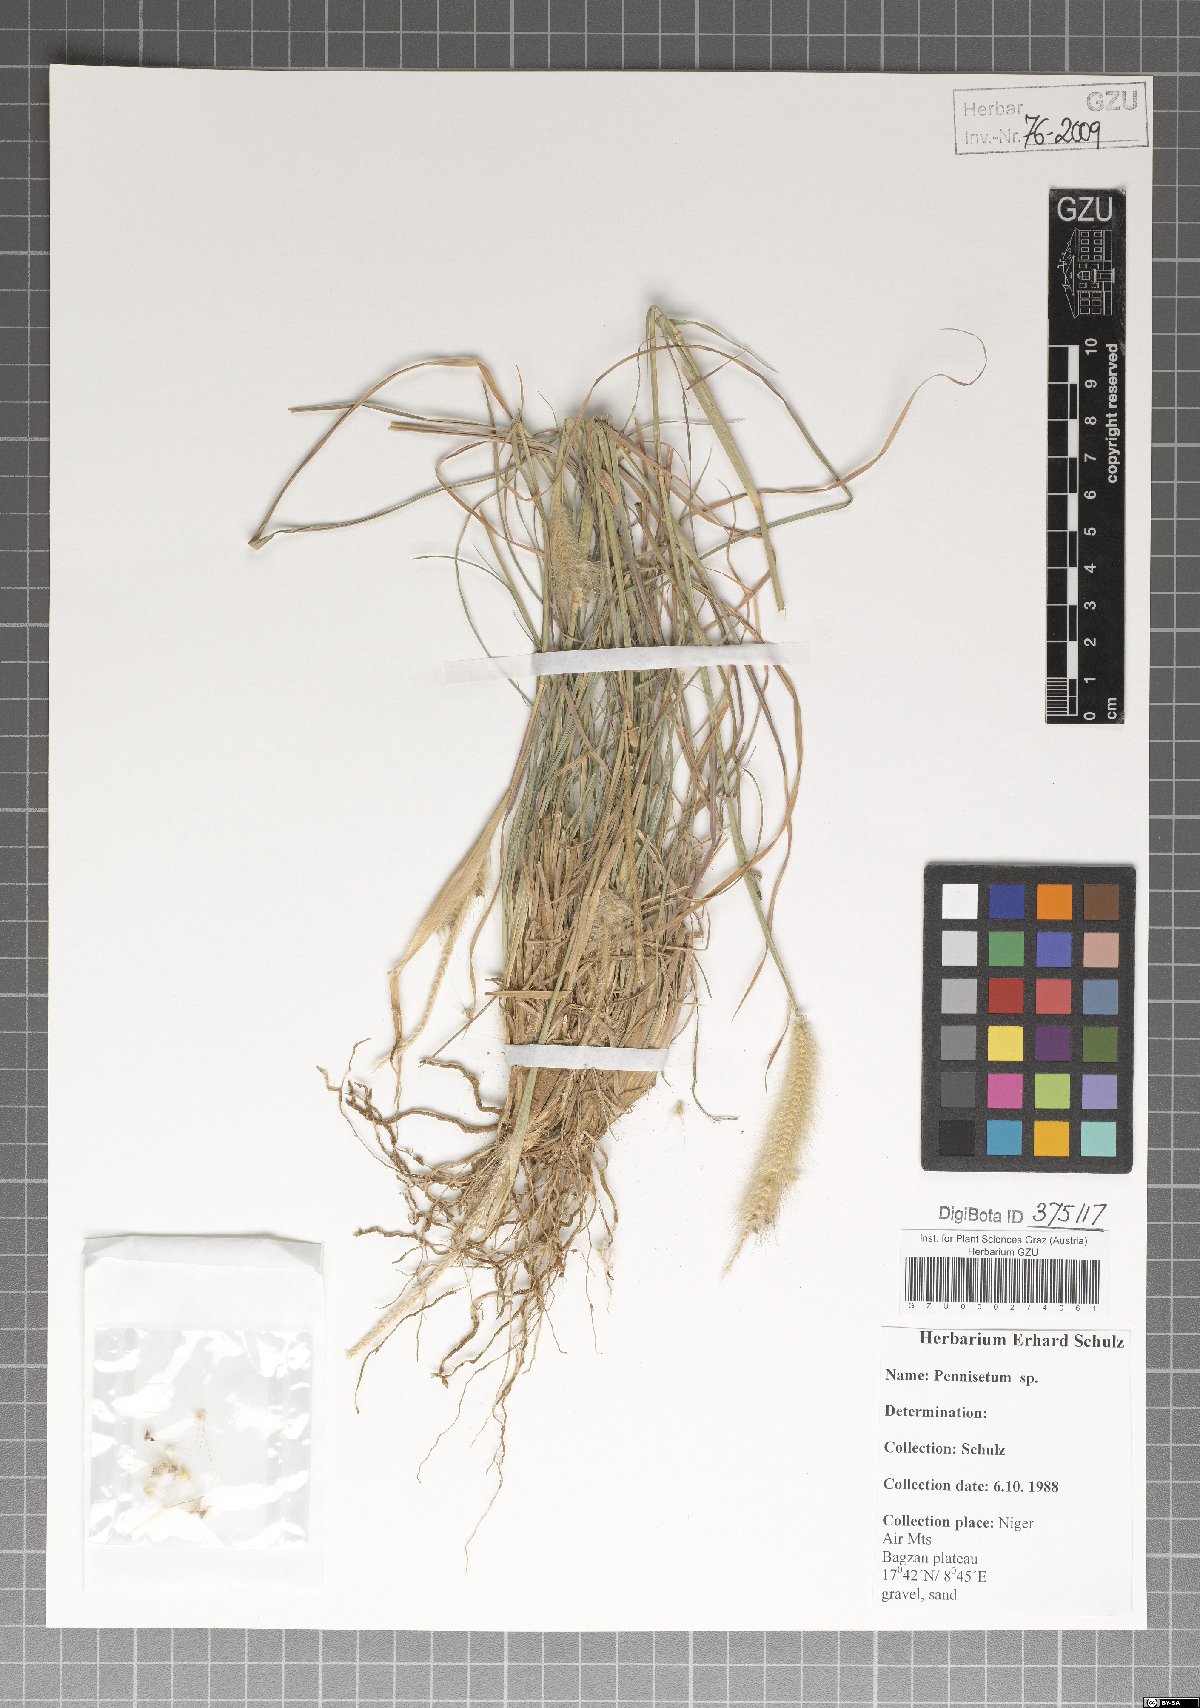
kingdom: Plantae
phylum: Tracheophyta
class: Liliopsida
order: Poales
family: Poaceae
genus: Cenchrus
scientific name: Cenchrus Pennisetum spec
